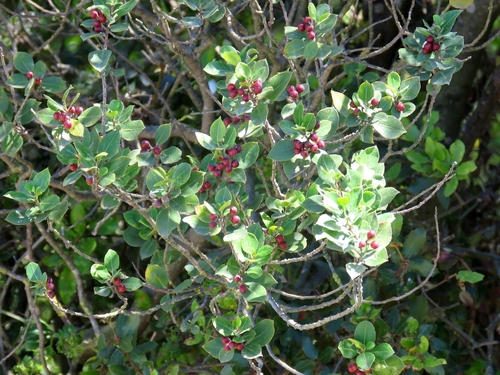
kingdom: Plantae
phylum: Tracheophyta
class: Magnoliopsida
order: Rosales
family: Rhamnaceae
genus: Rhamnus
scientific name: Rhamnus alaternus
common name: Mediterranean buckthorn
